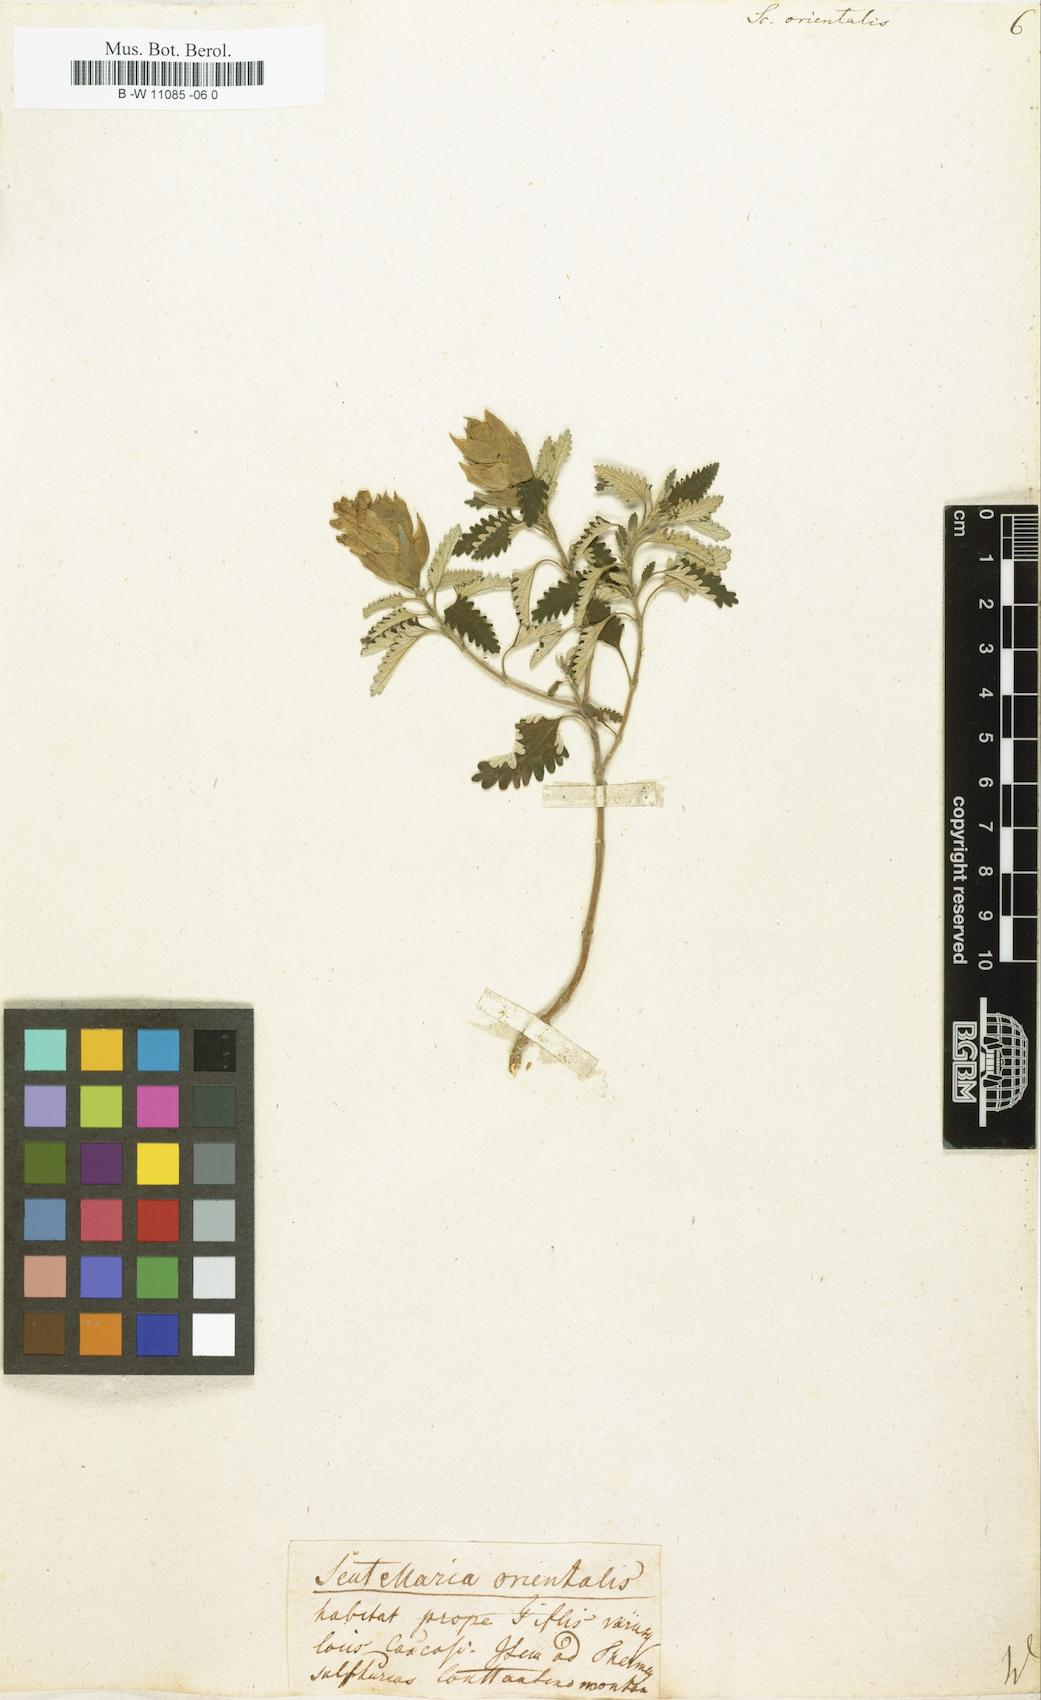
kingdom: Plantae
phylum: Tracheophyta
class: Magnoliopsida
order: Lamiales
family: Lamiaceae
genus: Scutellaria
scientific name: Scutellaria orientalis
